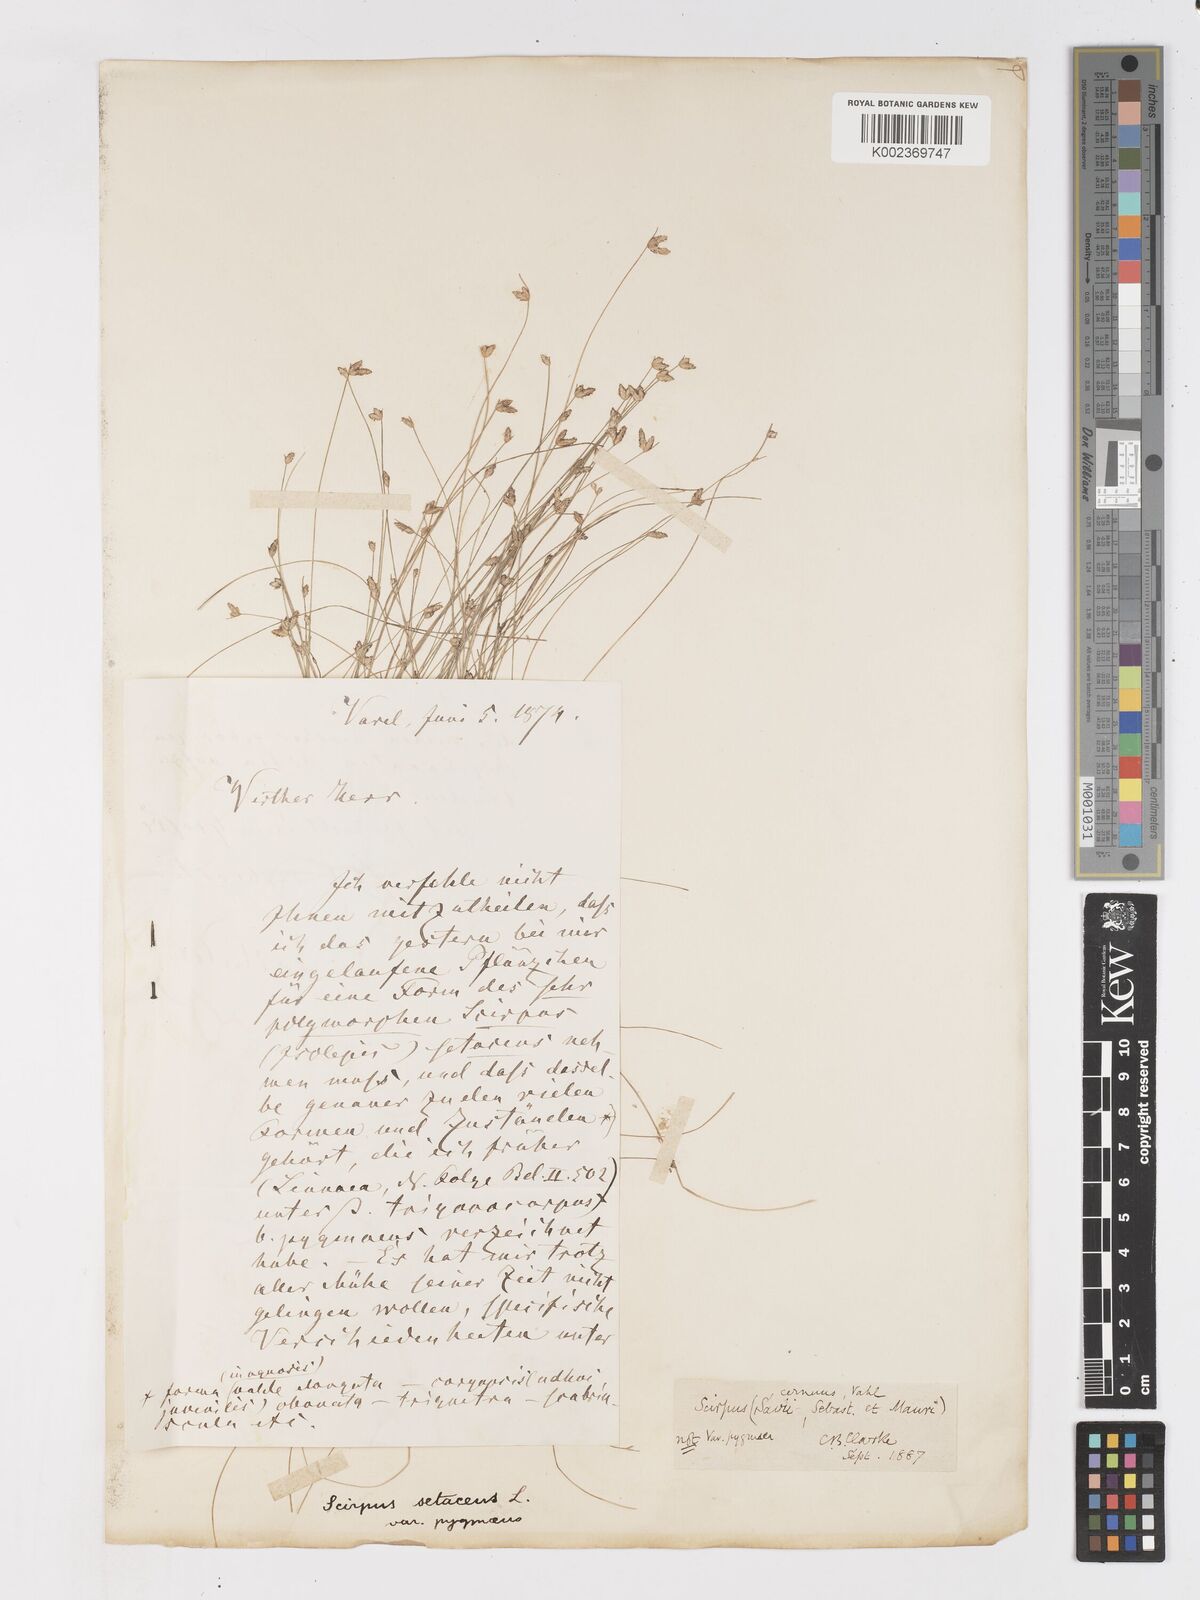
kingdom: Plantae
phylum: Tracheophyta
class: Liliopsida
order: Poales
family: Cyperaceae
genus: Isolepis
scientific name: Isolepis cernua
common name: Slender club-rush
